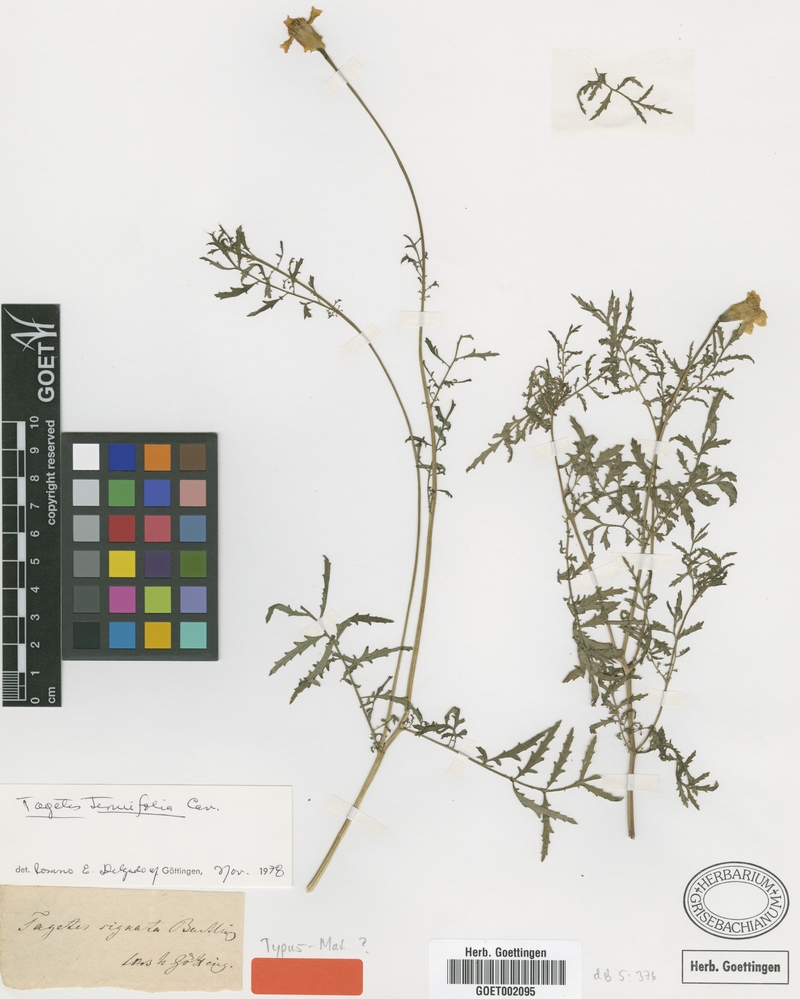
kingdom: Plantae
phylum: Tracheophyta
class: Magnoliopsida
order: Asterales
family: Asteraceae
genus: Tagetes
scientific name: Tagetes tenuifolia
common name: Signet marigold
